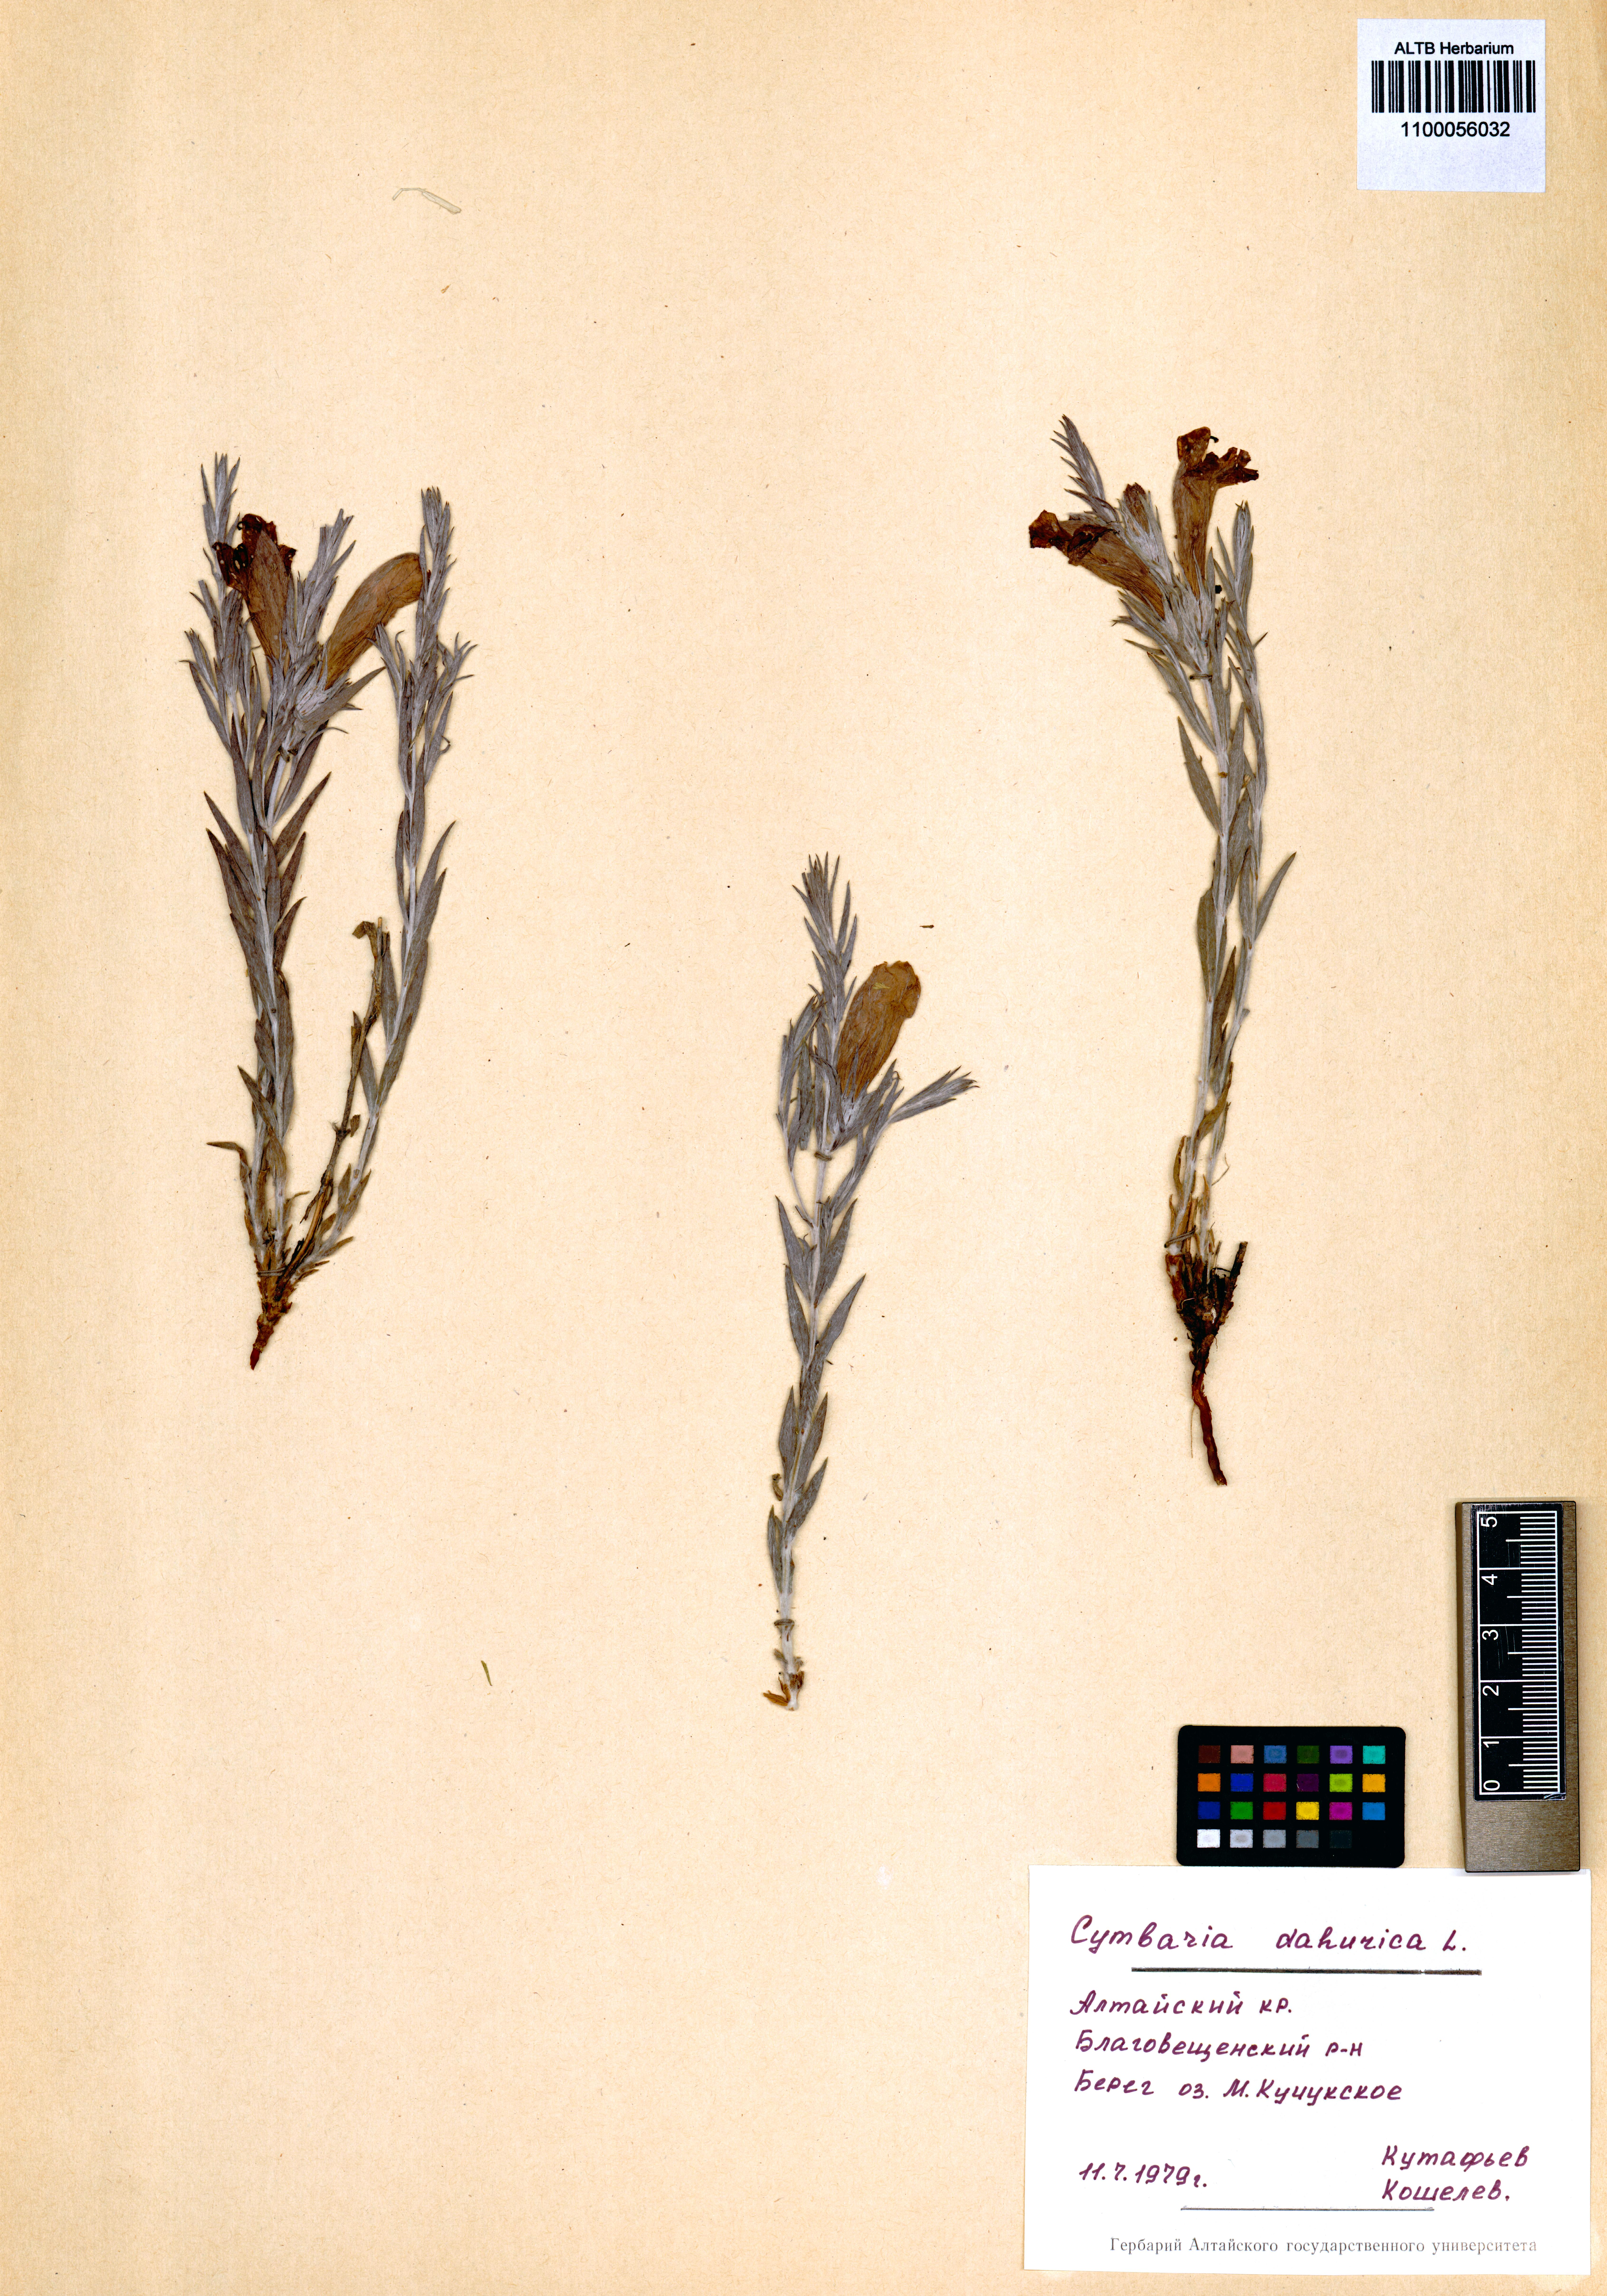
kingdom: Plantae
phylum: Tracheophyta
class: Magnoliopsida
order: Lamiales
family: Orobanchaceae
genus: Cymbaria
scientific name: Cymbaria daurica
